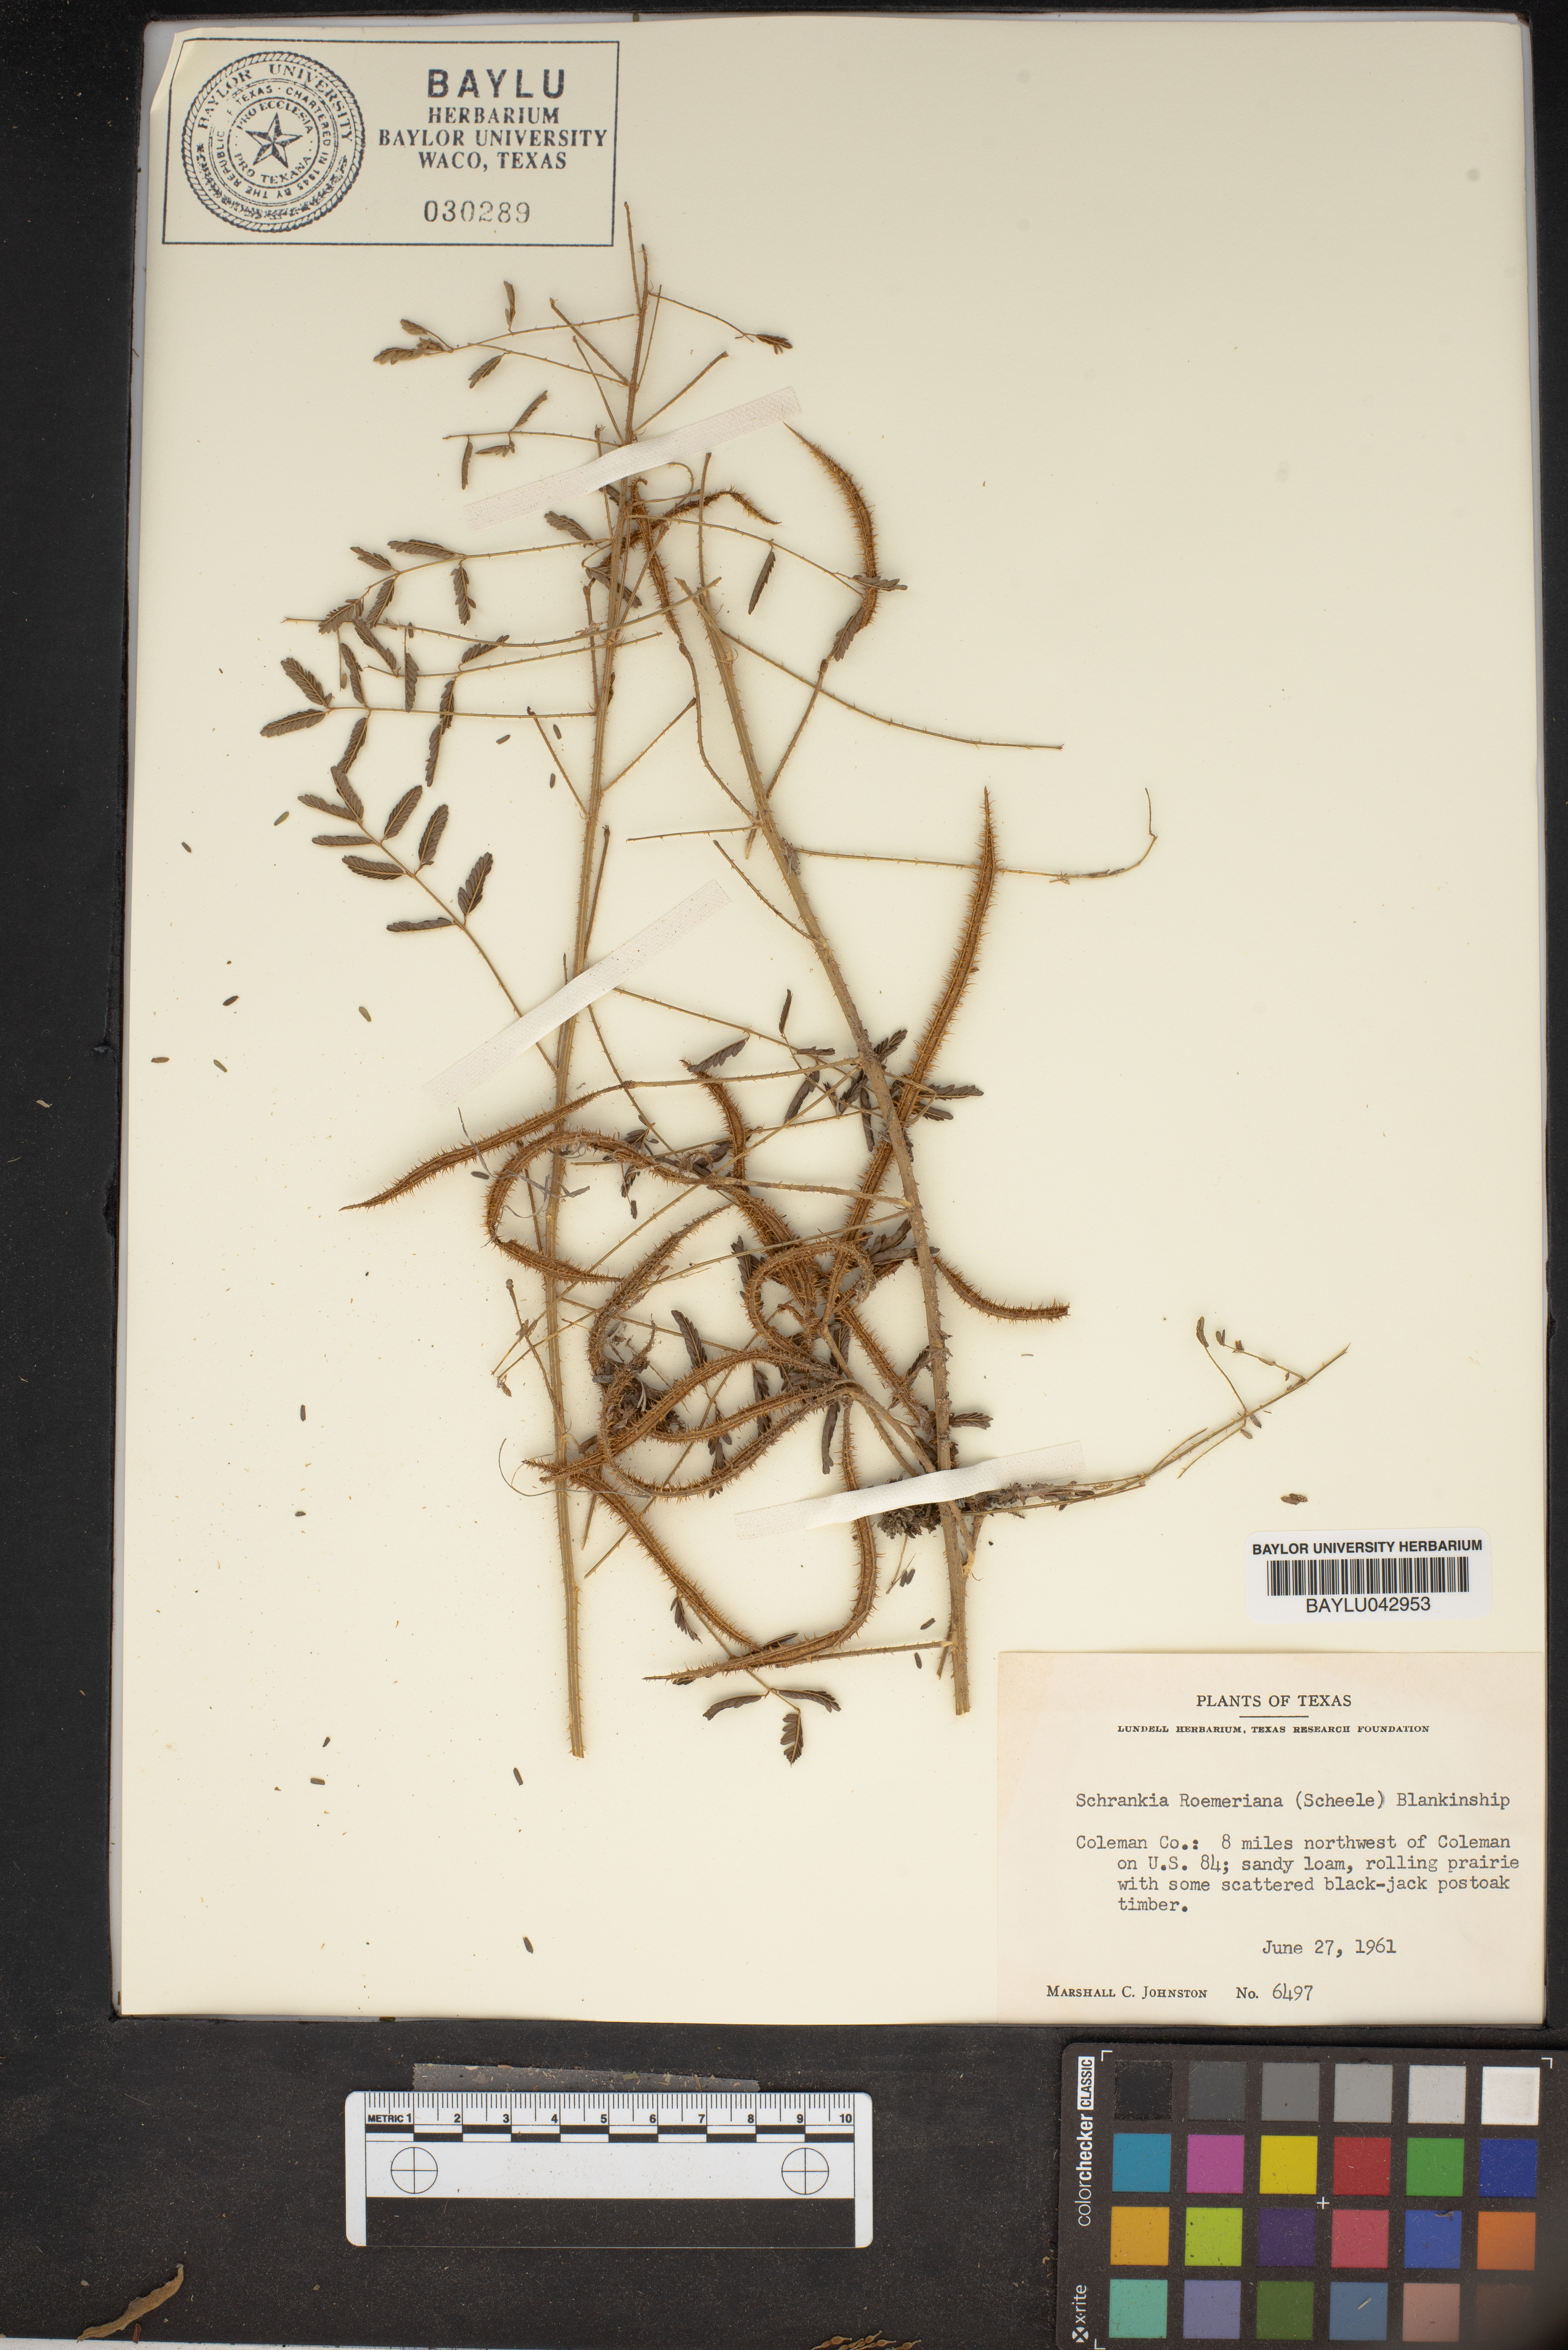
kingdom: Plantae
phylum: Tracheophyta
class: Magnoliopsida
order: Fabales
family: Fabaceae
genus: Mimosa
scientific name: Mimosa quadrivalvis
